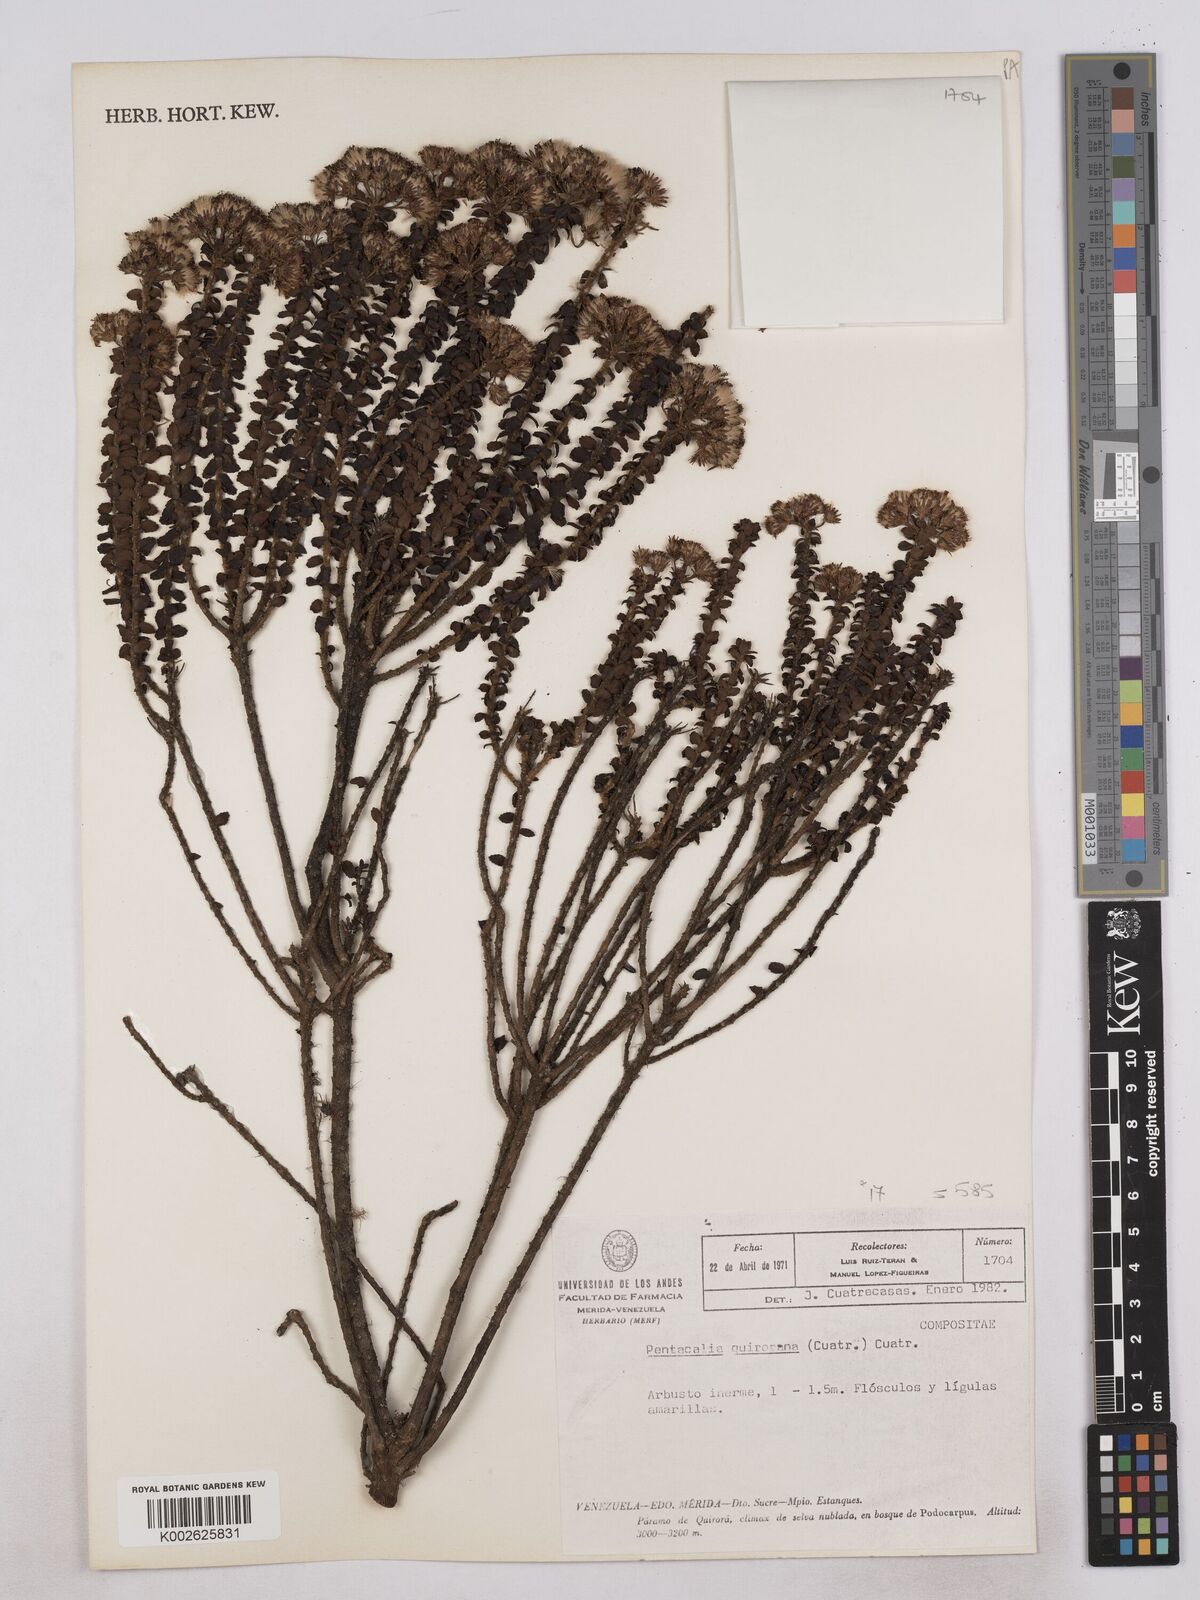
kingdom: Plantae
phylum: Tracheophyta
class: Magnoliopsida
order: Asterales
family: Asteraceae
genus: Monticalia
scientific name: Monticalia quiroana
